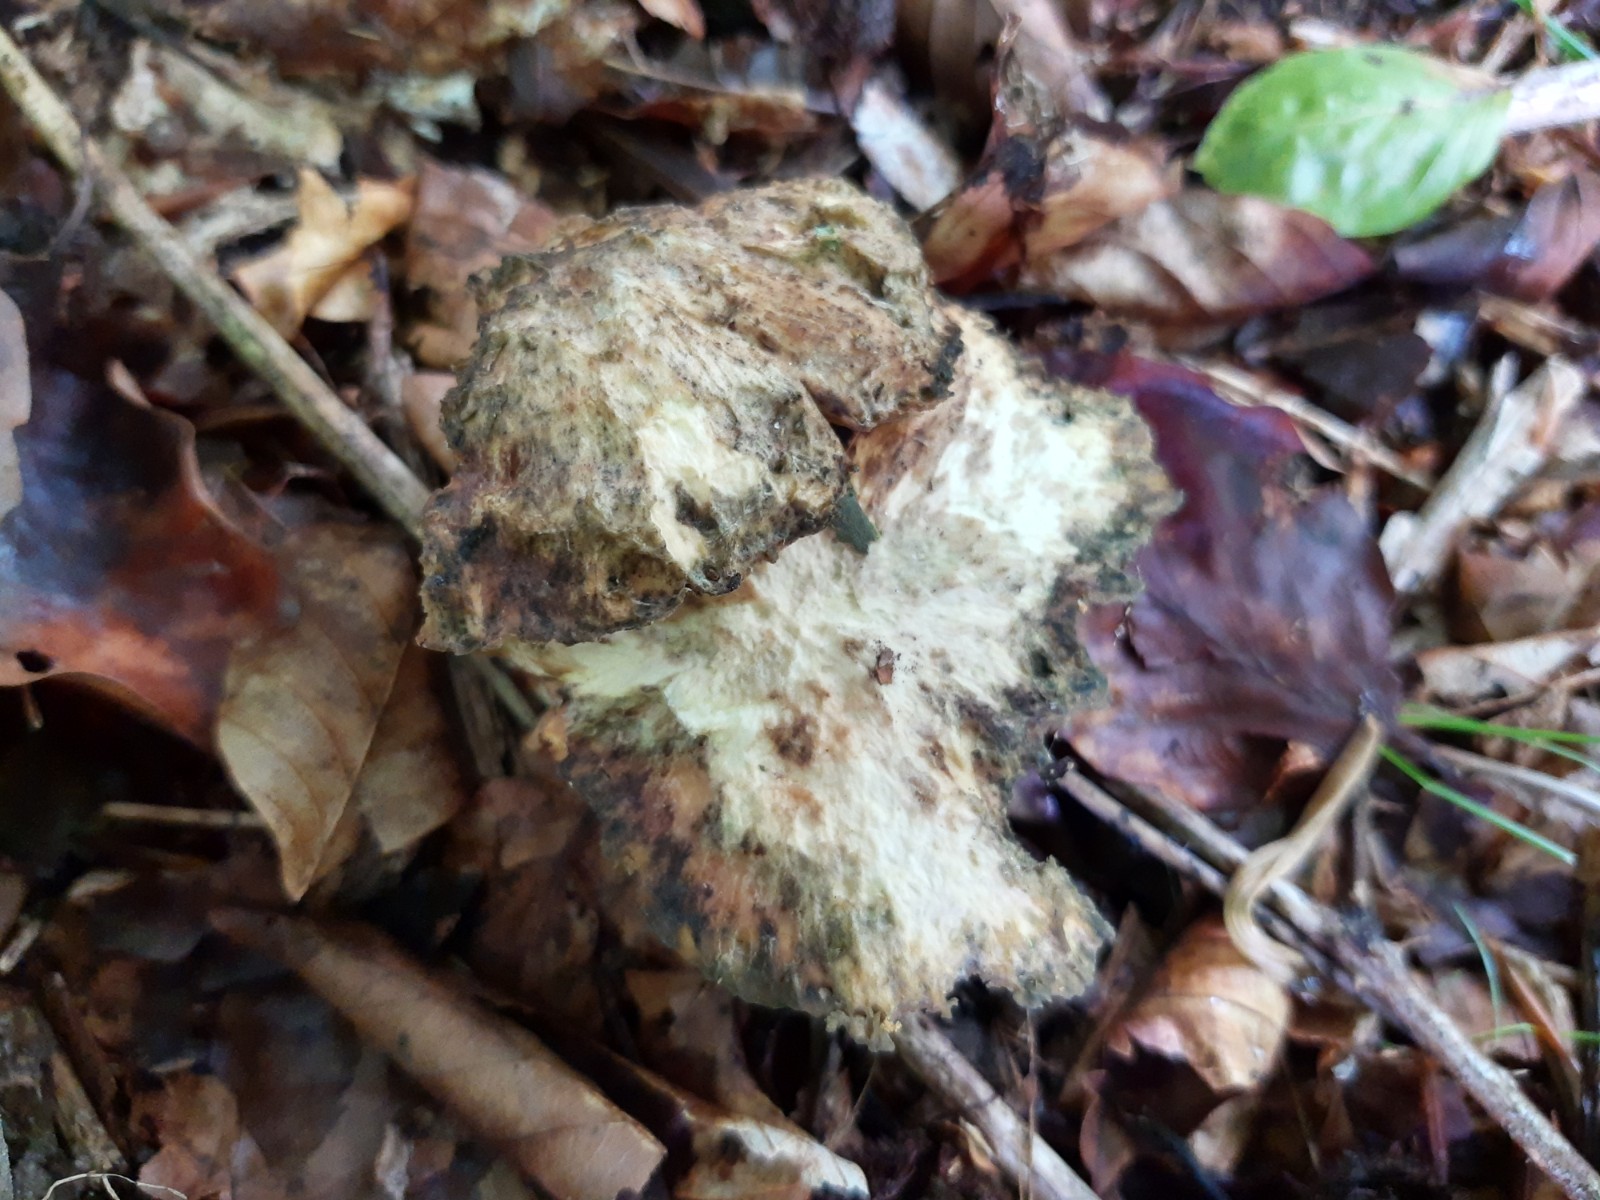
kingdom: Fungi
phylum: Basidiomycota
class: Agaricomycetes
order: Polyporales
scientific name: Polyporales
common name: poresvampordenen
